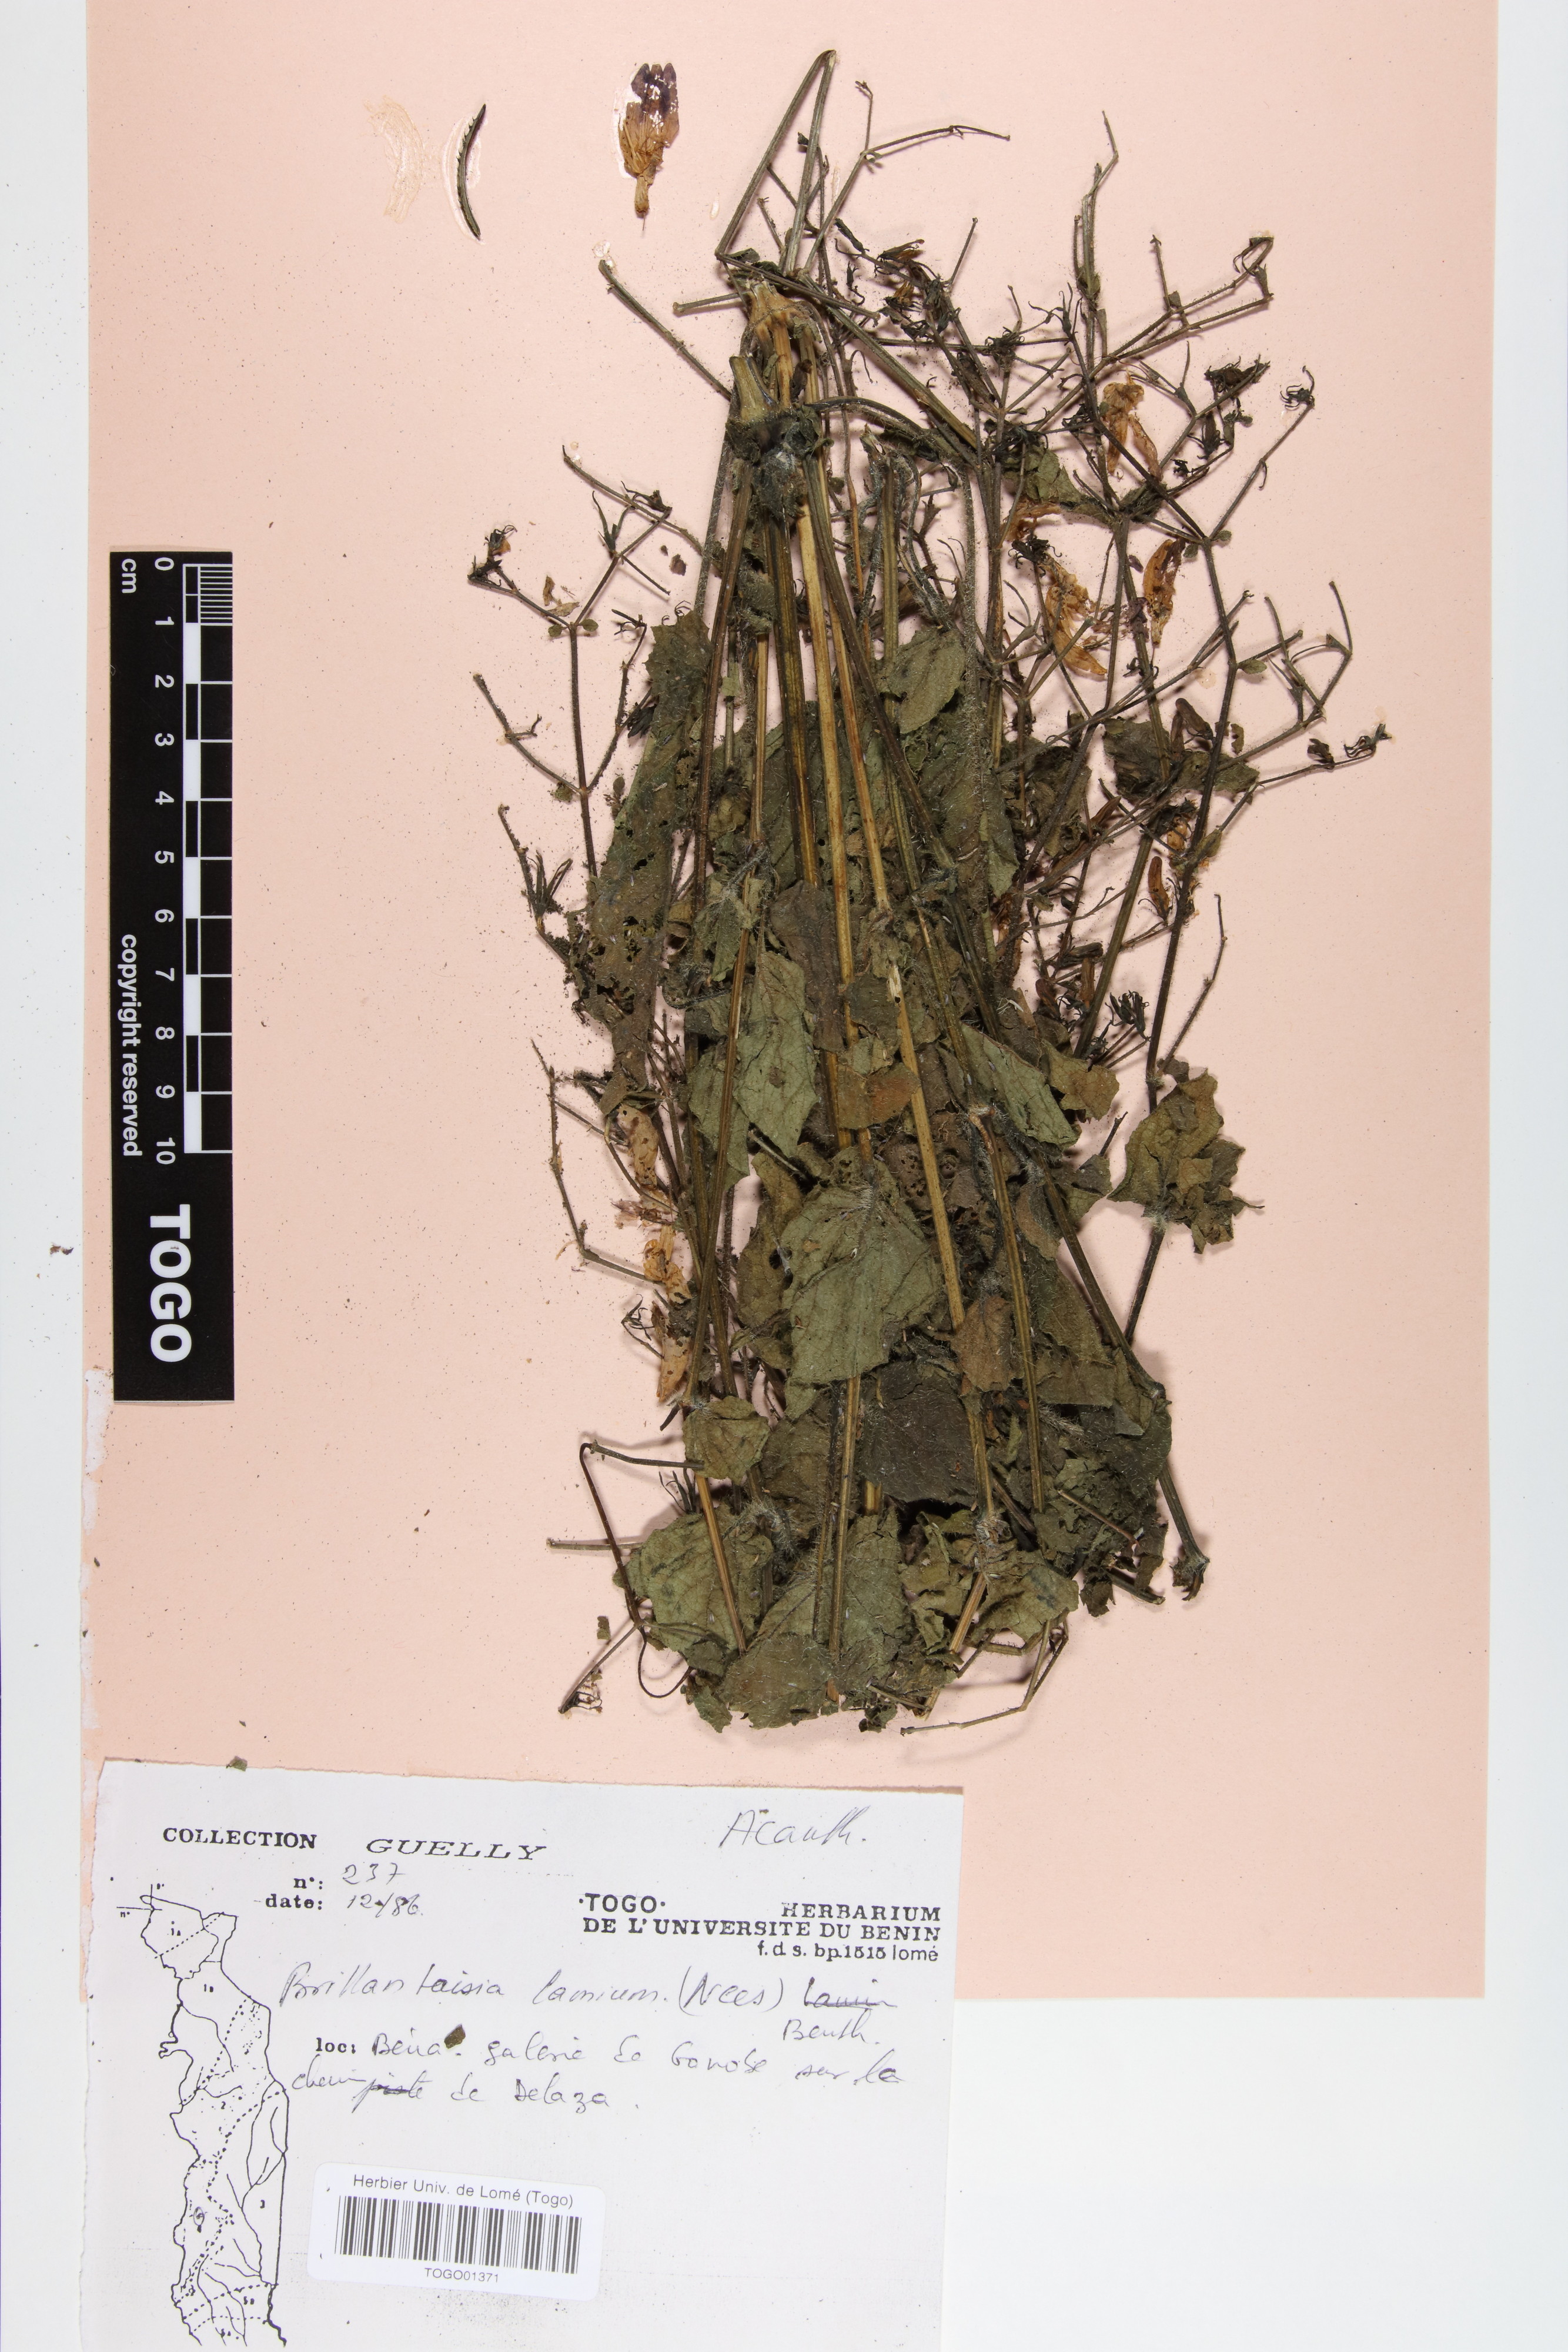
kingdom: Plantae
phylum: Tracheophyta
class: Magnoliopsida
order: Lamiales
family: Acanthaceae
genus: Brillantaisia
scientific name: Brillantaisia lamium
